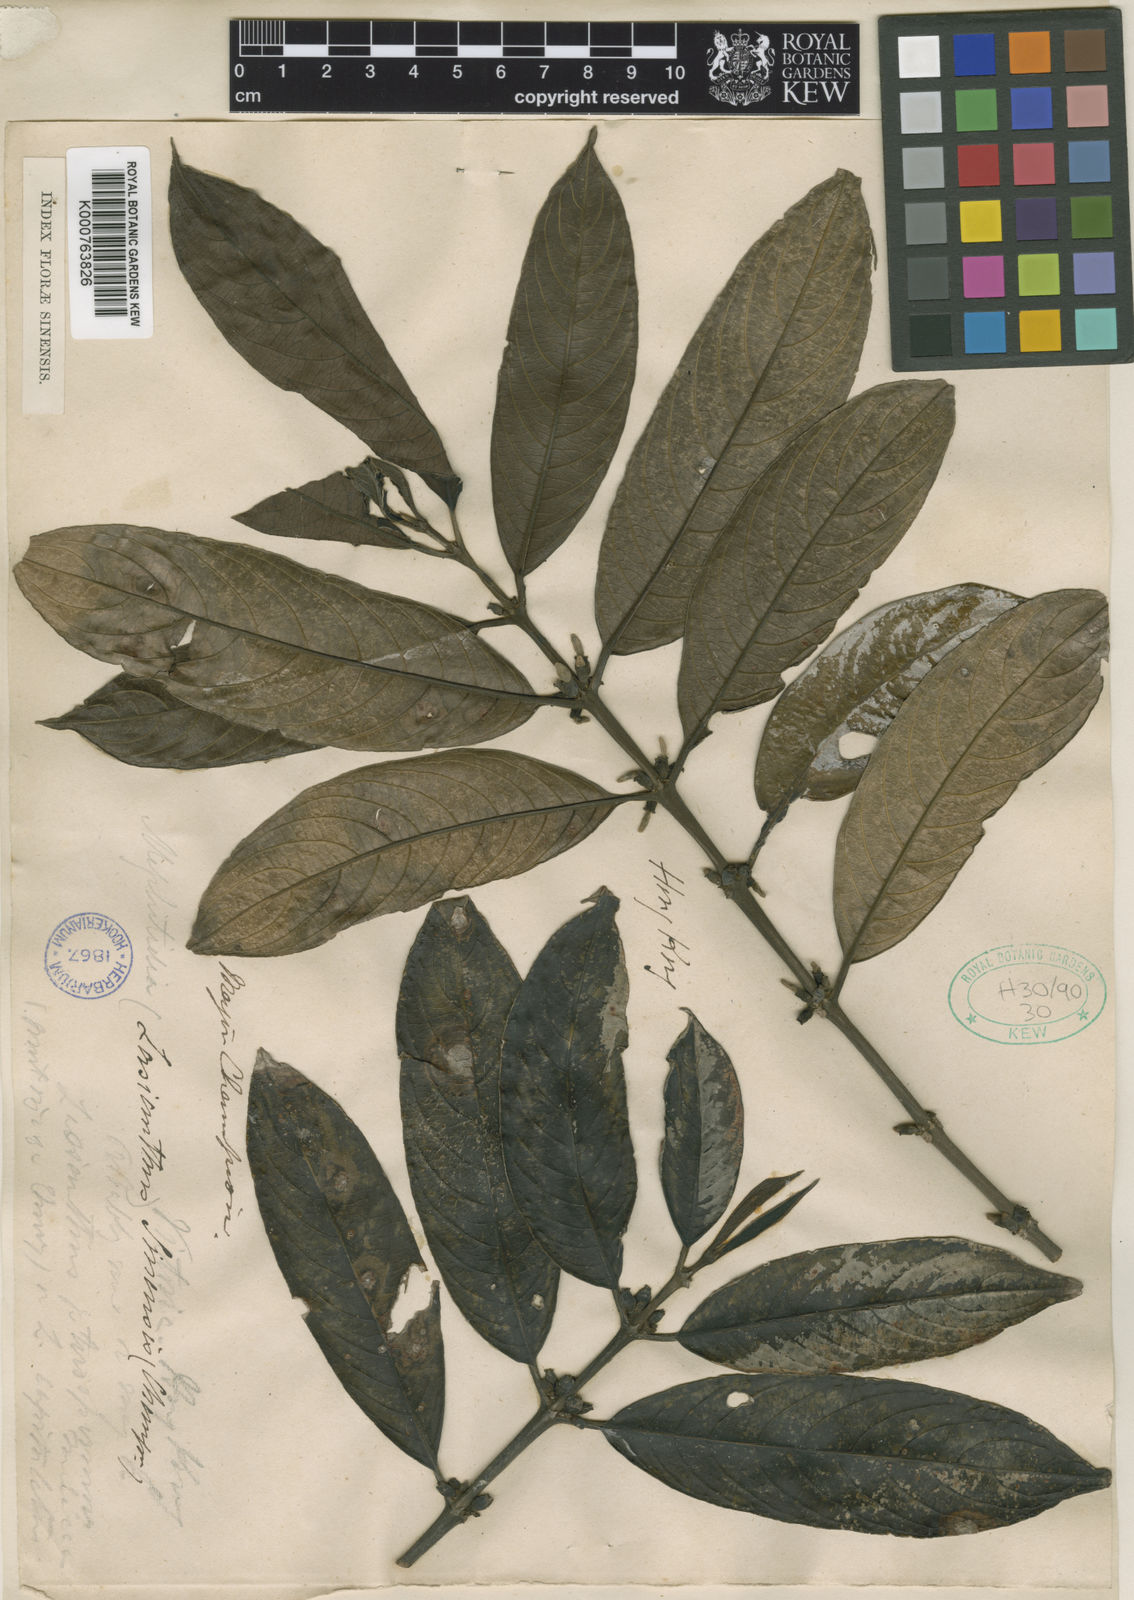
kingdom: Plantae
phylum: Tracheophyta
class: Magnoliopsida
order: Gentianales
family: Rubiaceae
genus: Lasianthus
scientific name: Lasianthus chinensis
